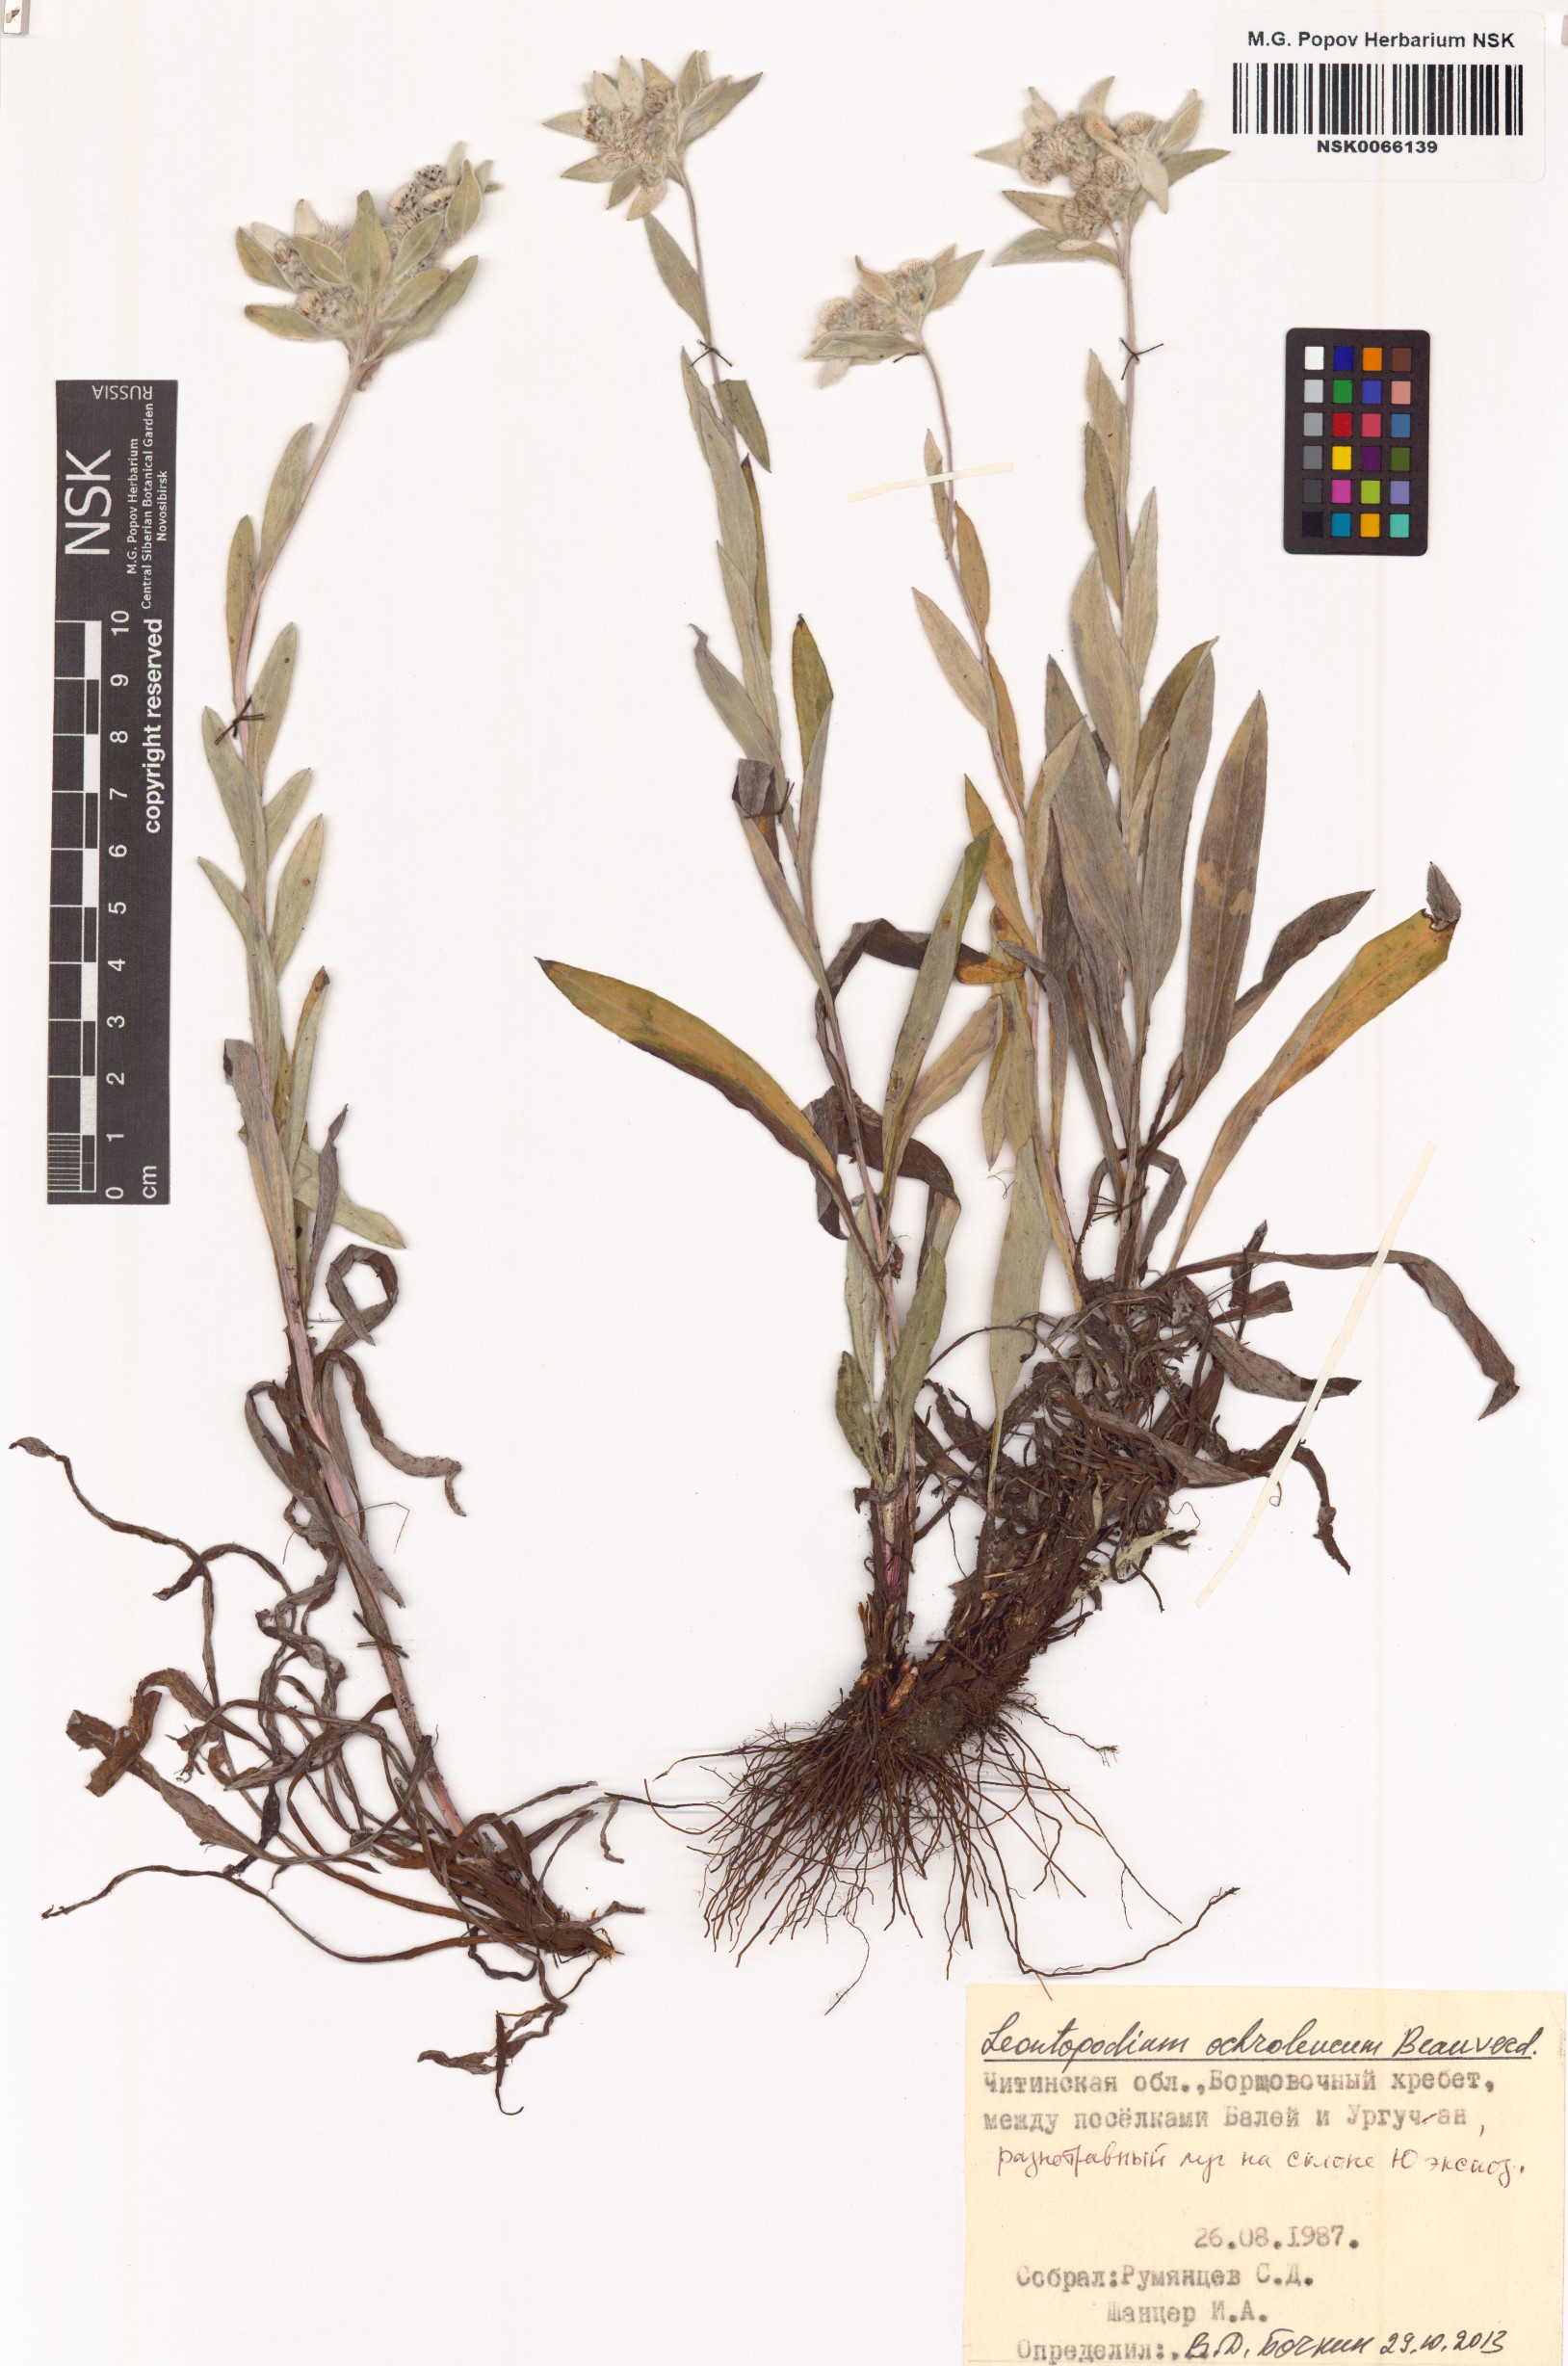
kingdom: Plantae
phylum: Tracheophyta
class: Magnoliopsida
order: Asterales
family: Asteraceae
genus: Leontopodium
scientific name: Leontopodium leontopodinum
